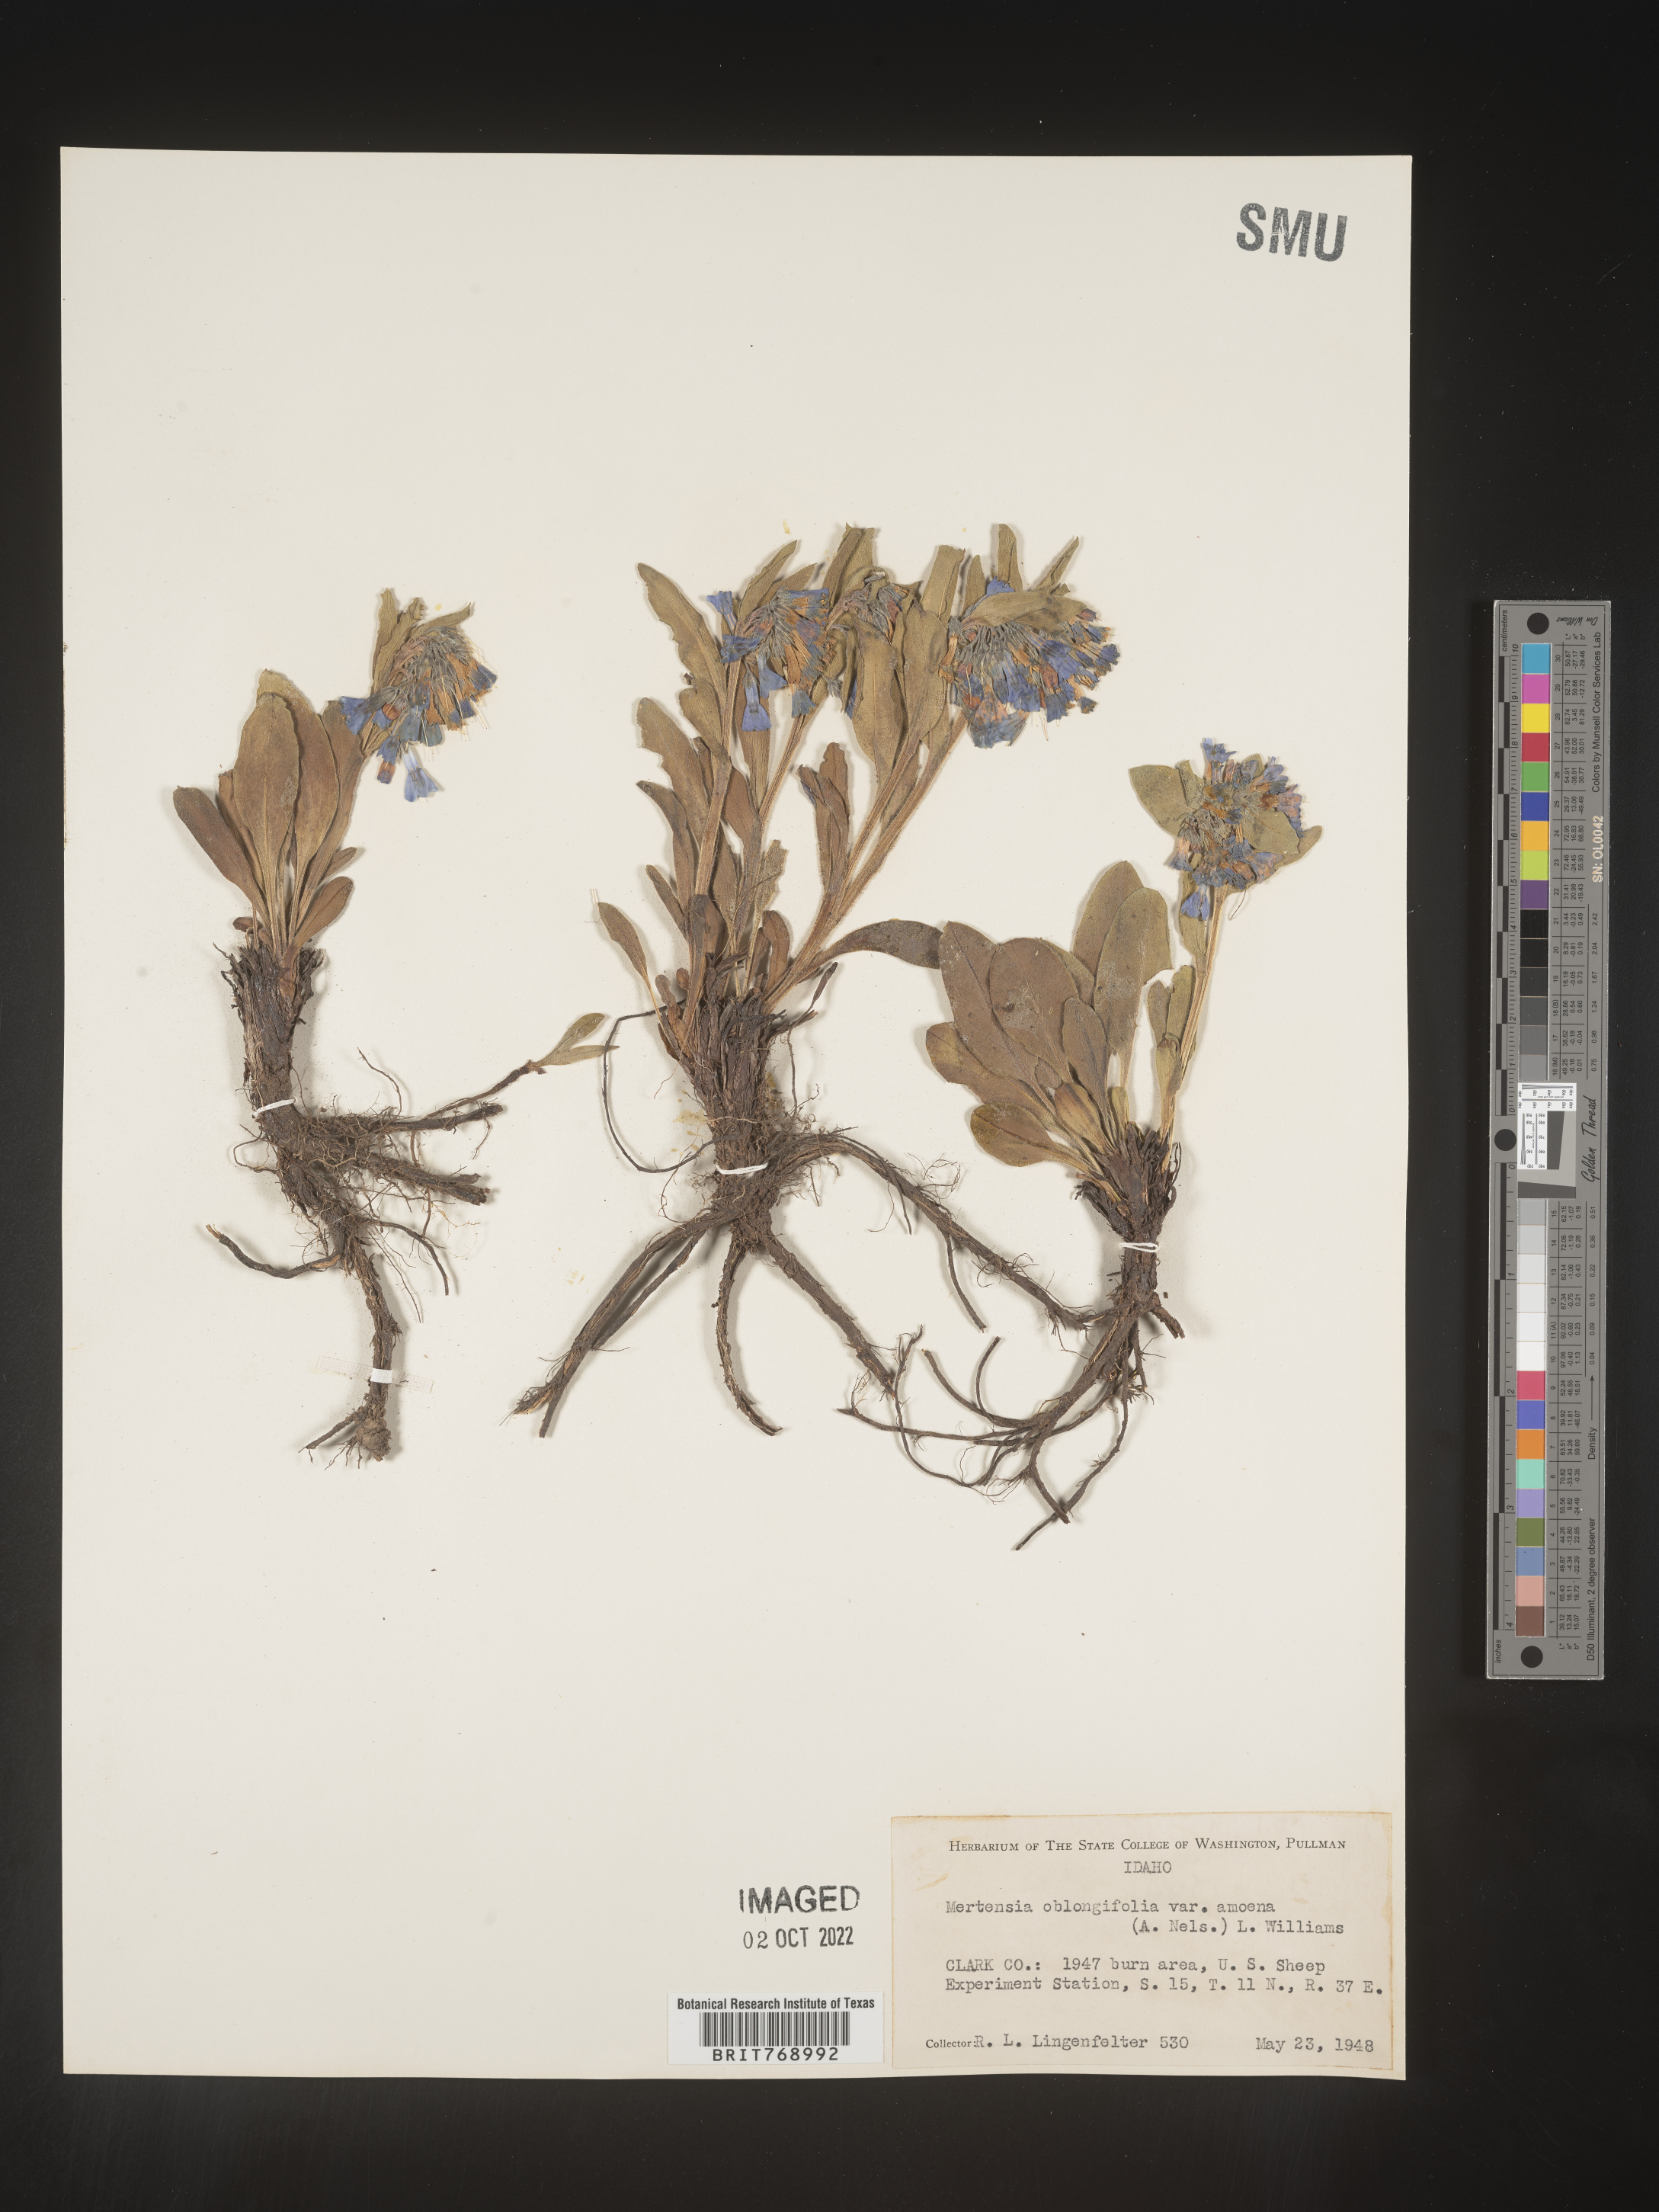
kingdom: Plantae
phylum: Tracheophyta
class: Magnoliopsida
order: Boraginales
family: Boraginaceae
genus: Mertensia
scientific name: Mertensia
